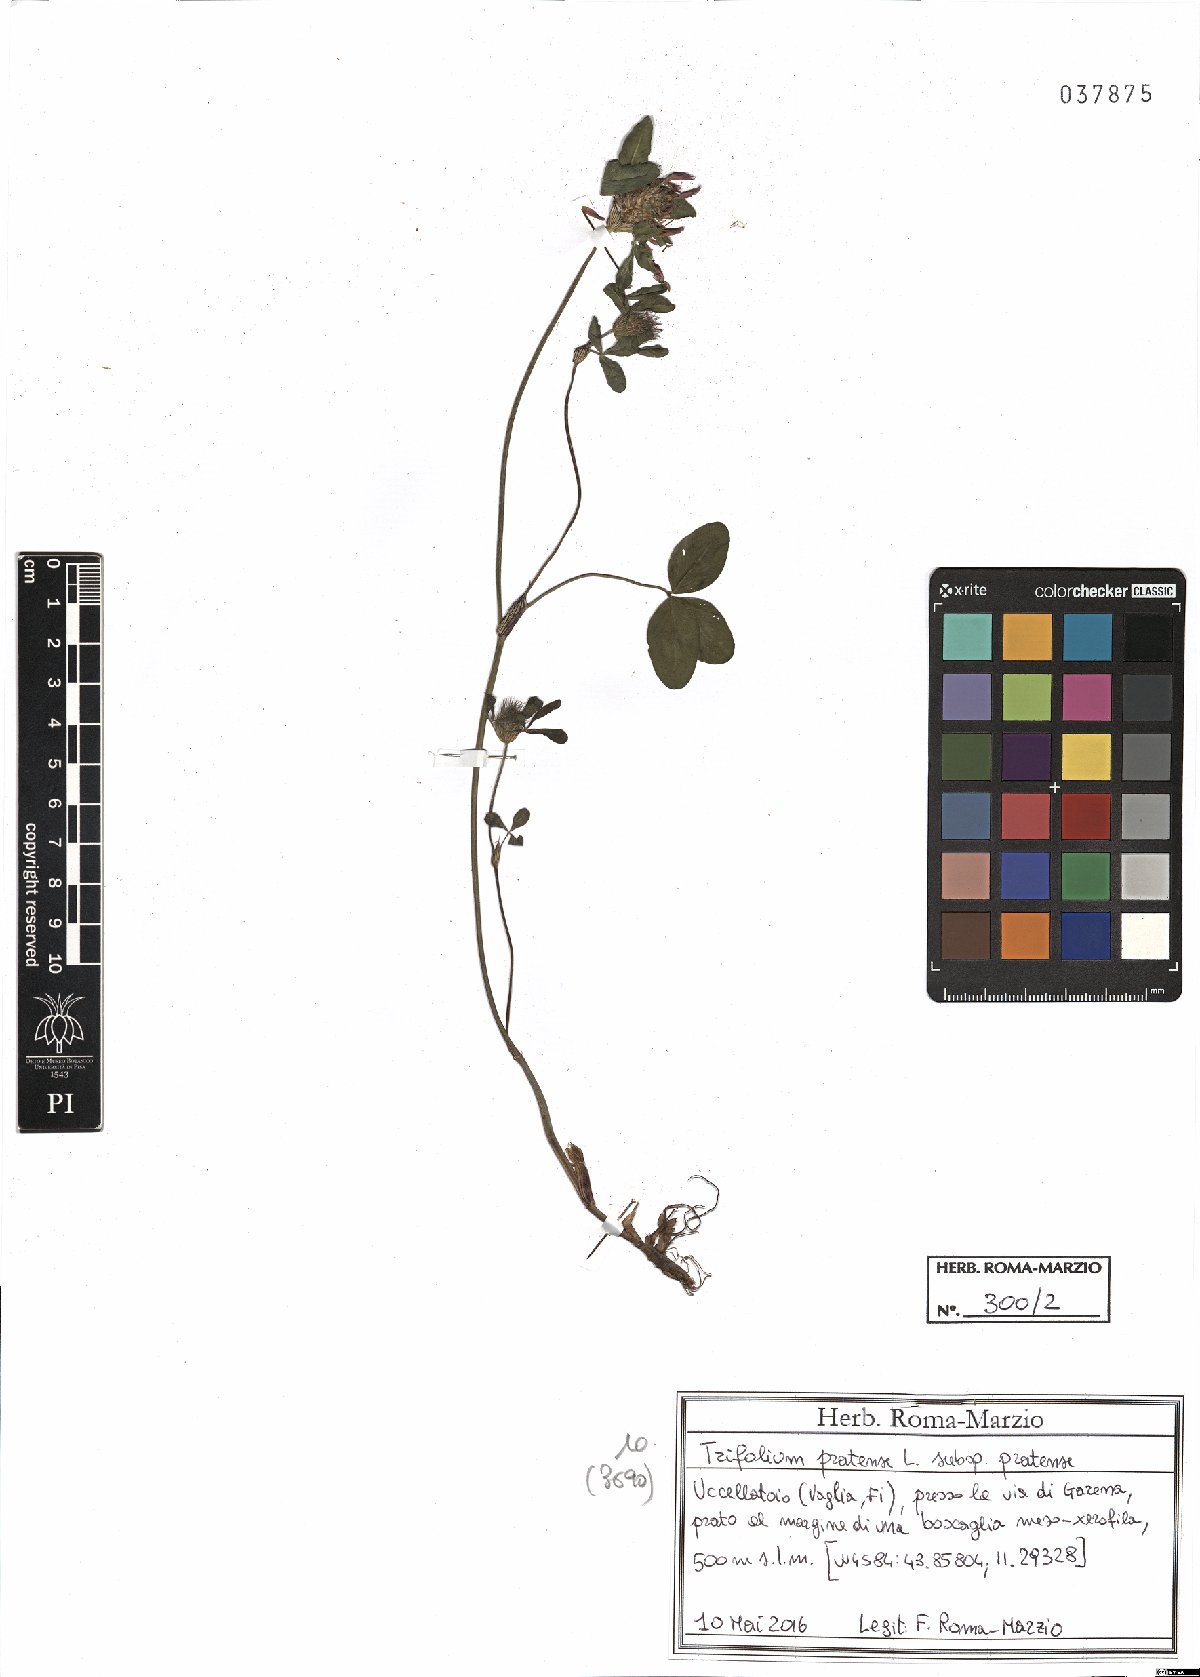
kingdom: Plantae
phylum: Tracheophyta
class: Magnoliopsida
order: Fabales
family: Fabaceae
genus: Trifolium
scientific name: Trifolium pratense
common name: Red clover
